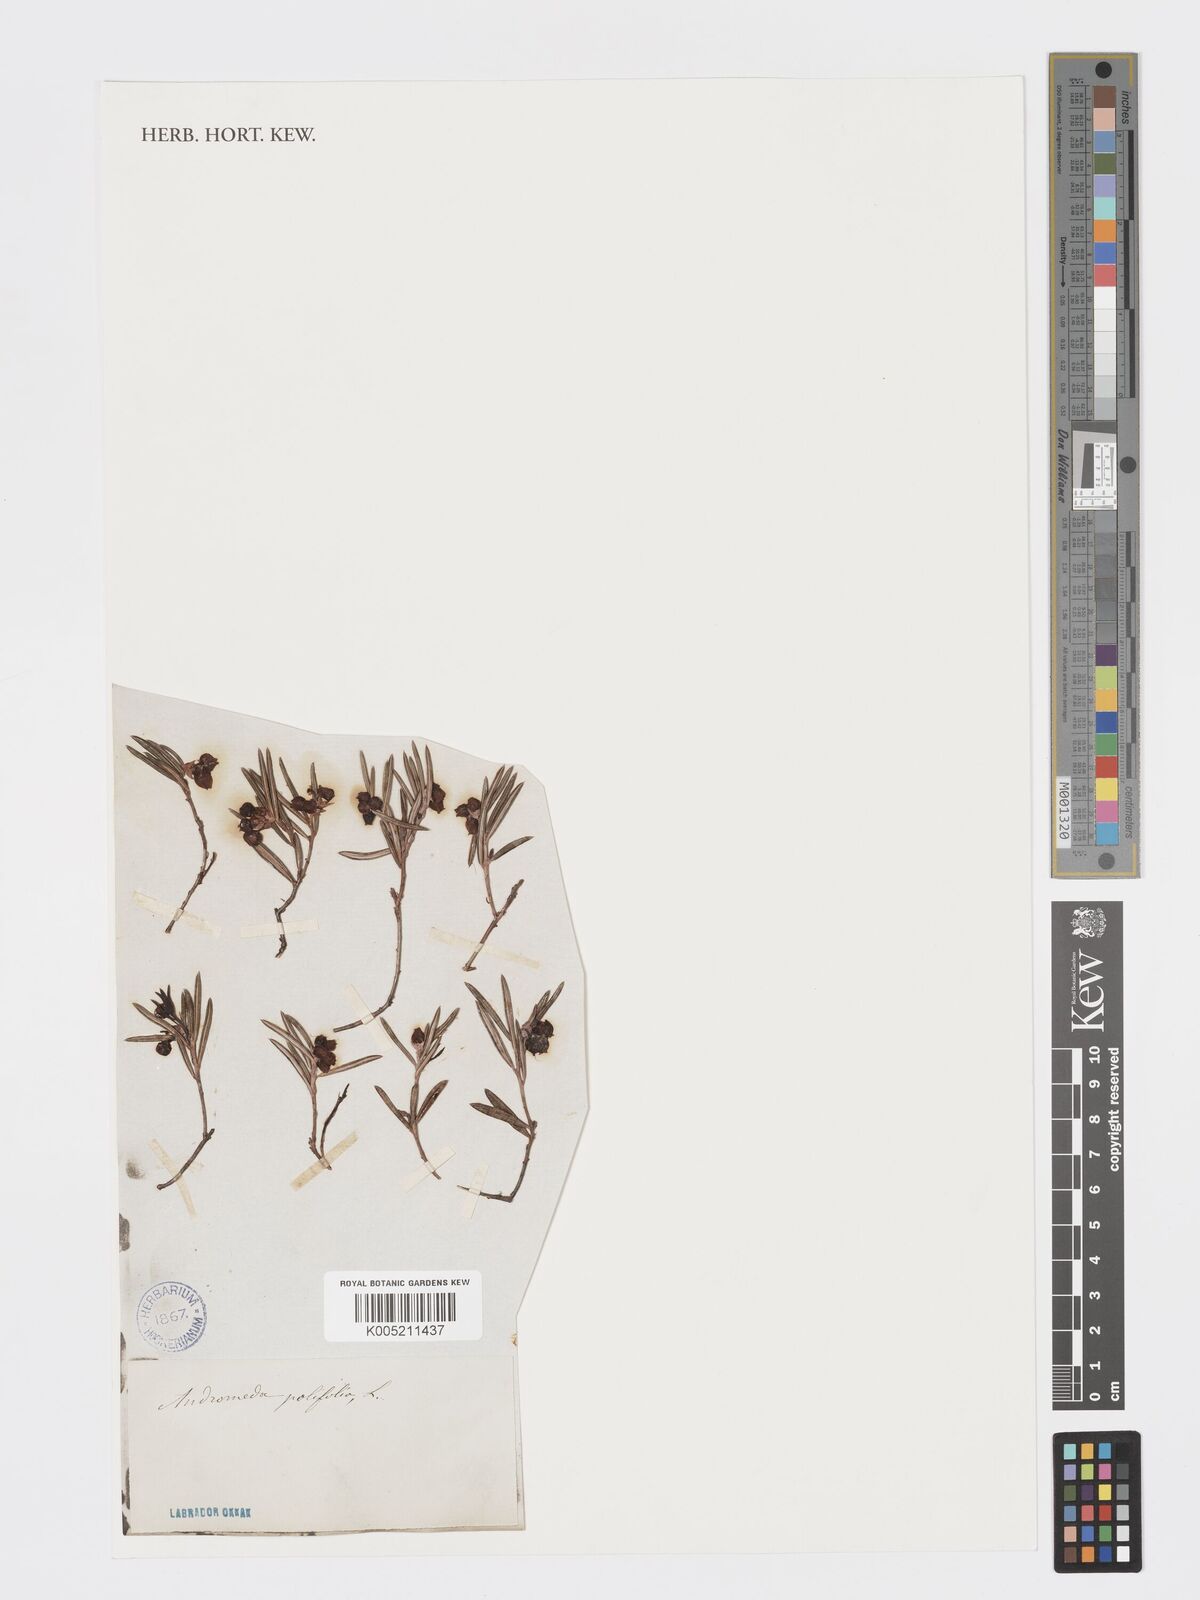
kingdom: Plantae
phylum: Tracheophyta
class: Magnoliopsida
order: Ericales
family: Ericaceae
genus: Andromeda
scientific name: Andromeda polifolia
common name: Bog-rosemary
